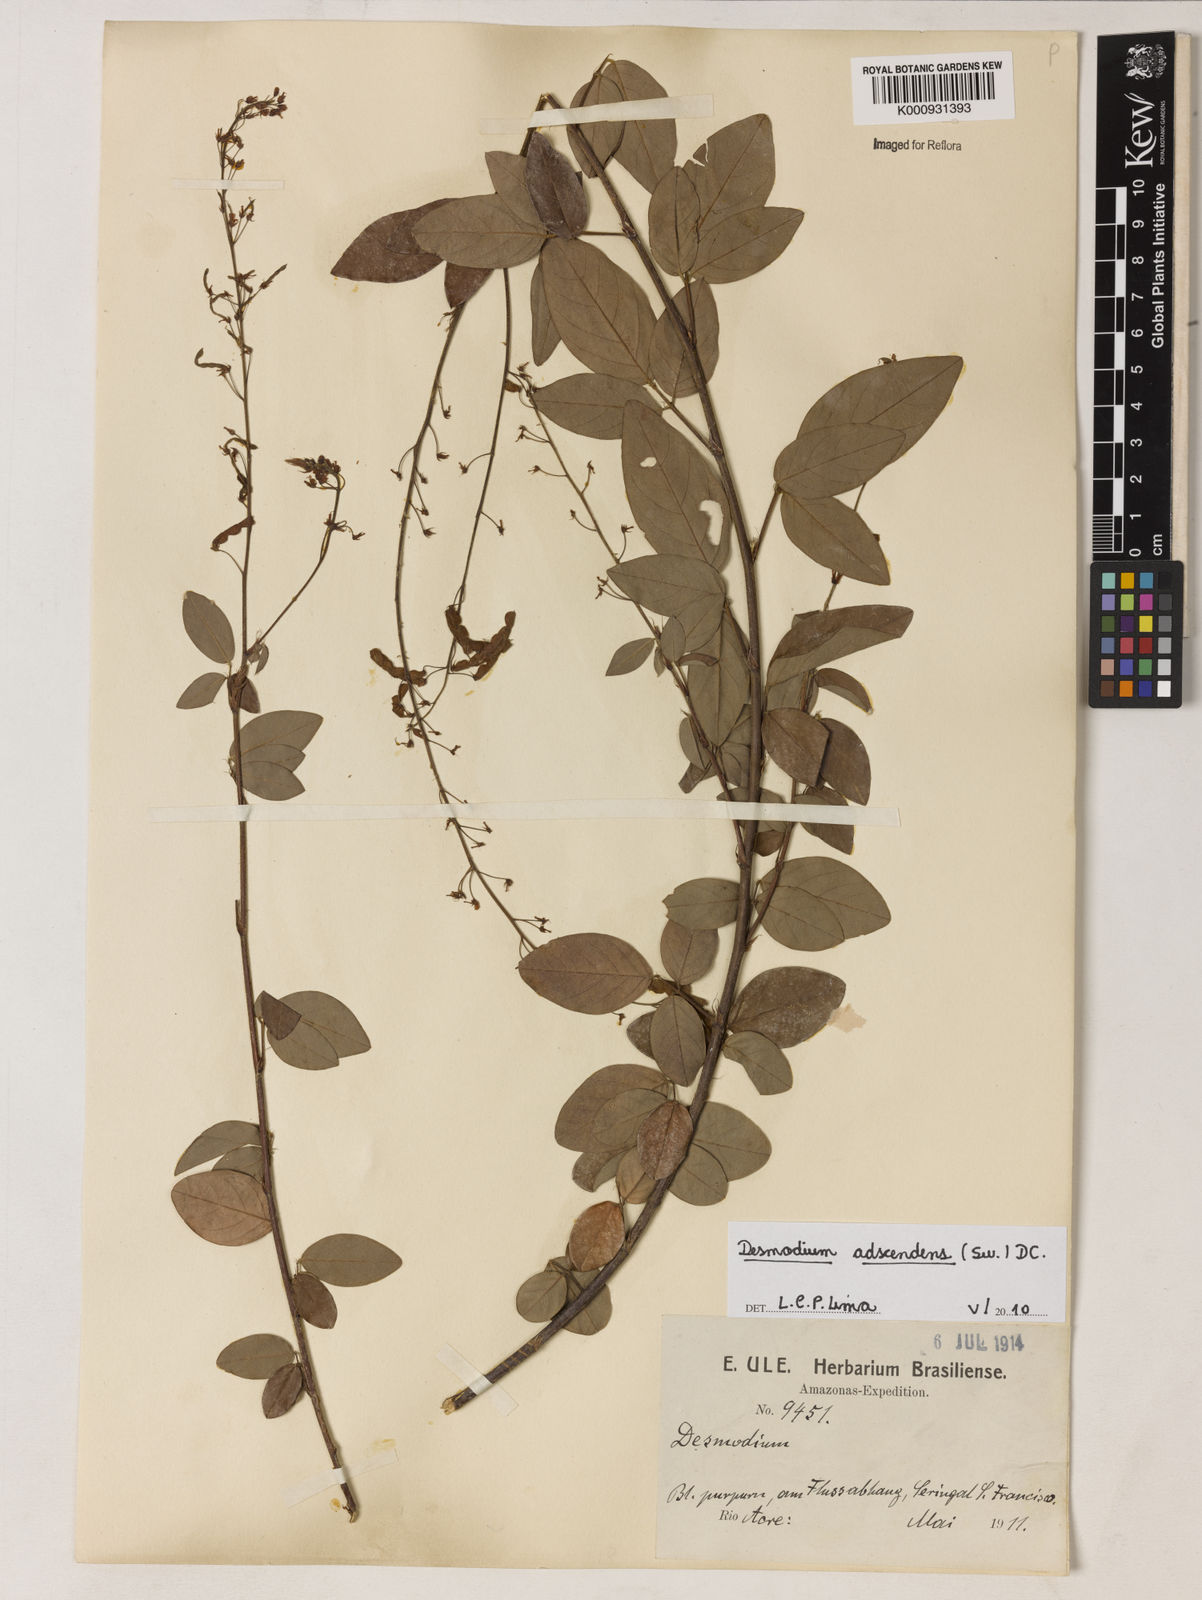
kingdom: Plantae
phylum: Tracheophyta
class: Magnoliopsida
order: Fabales
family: Fabaceae
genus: Grona
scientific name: Grona adscendens
